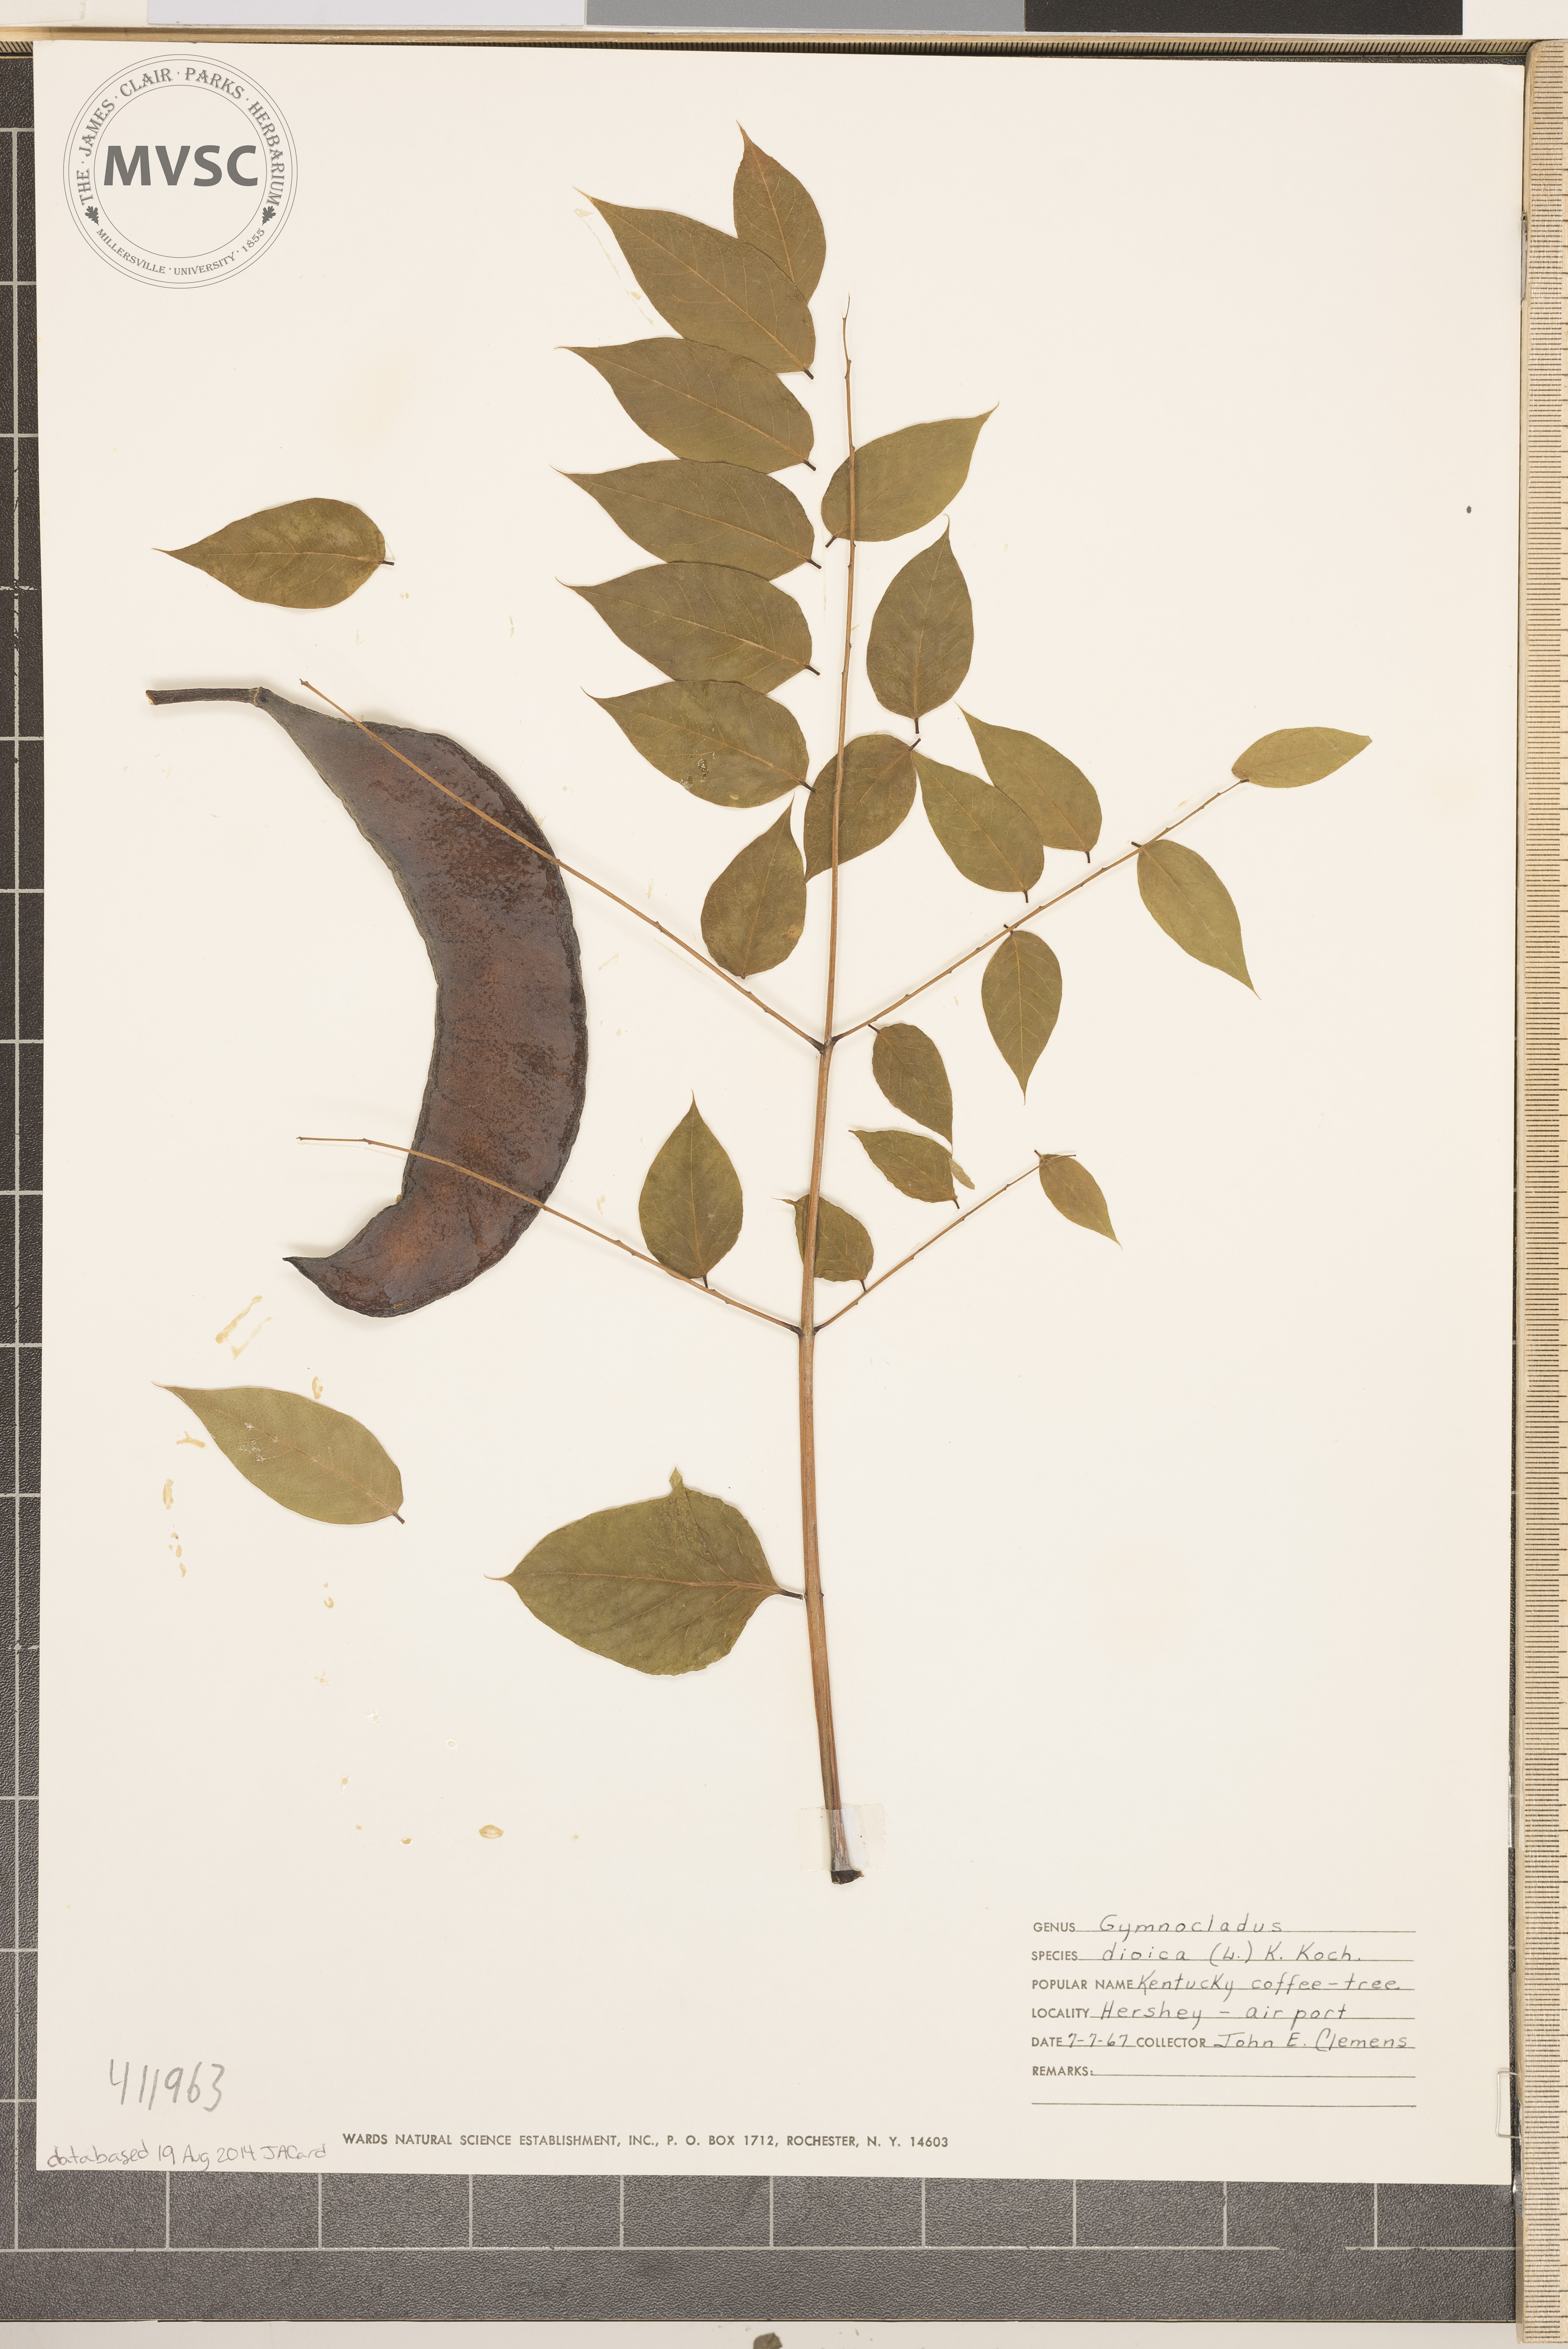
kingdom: Plantae
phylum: Tracheophyta
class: Magnoliopsida
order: Fabales
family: Fabaceae
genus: Gymnocladus
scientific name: Gymnocladus dioicus
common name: Kentucky coffee-tree
